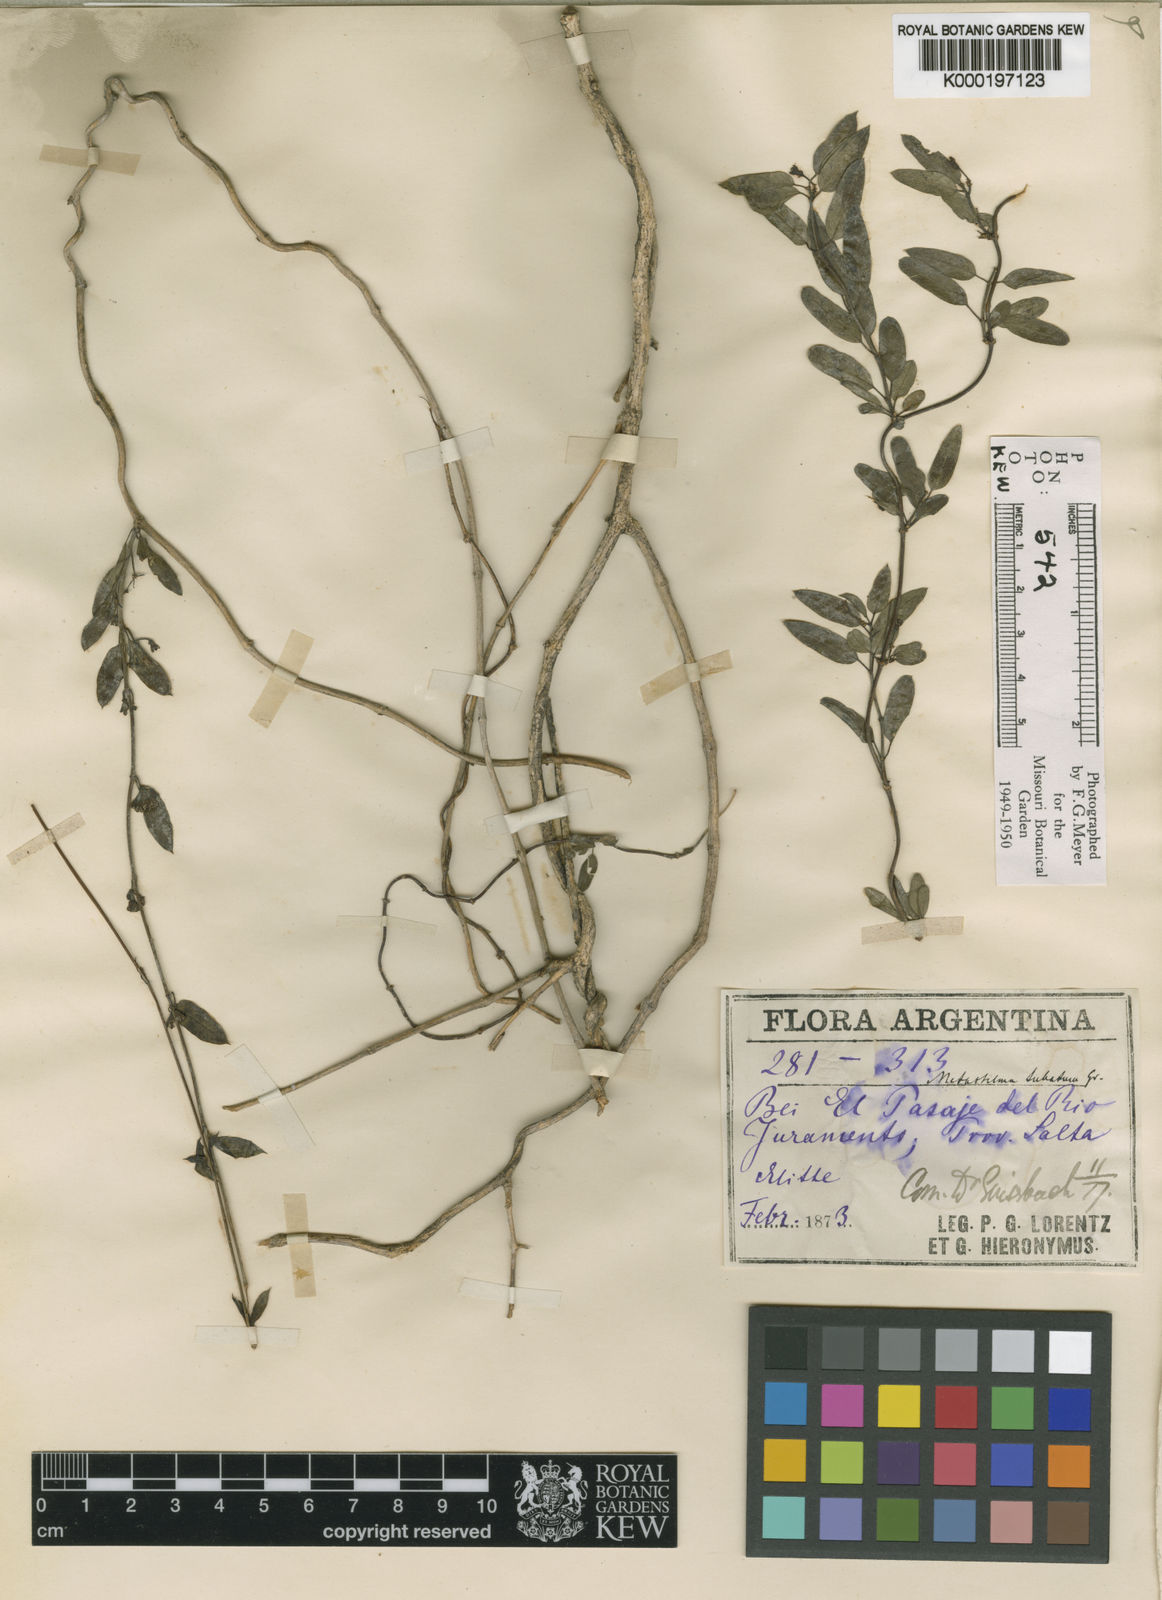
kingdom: Plantae
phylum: Tracheophyta
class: Magnoliopsida
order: Gentianales
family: Apocynaceae
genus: Metastelma
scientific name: Metastelma tubatum
